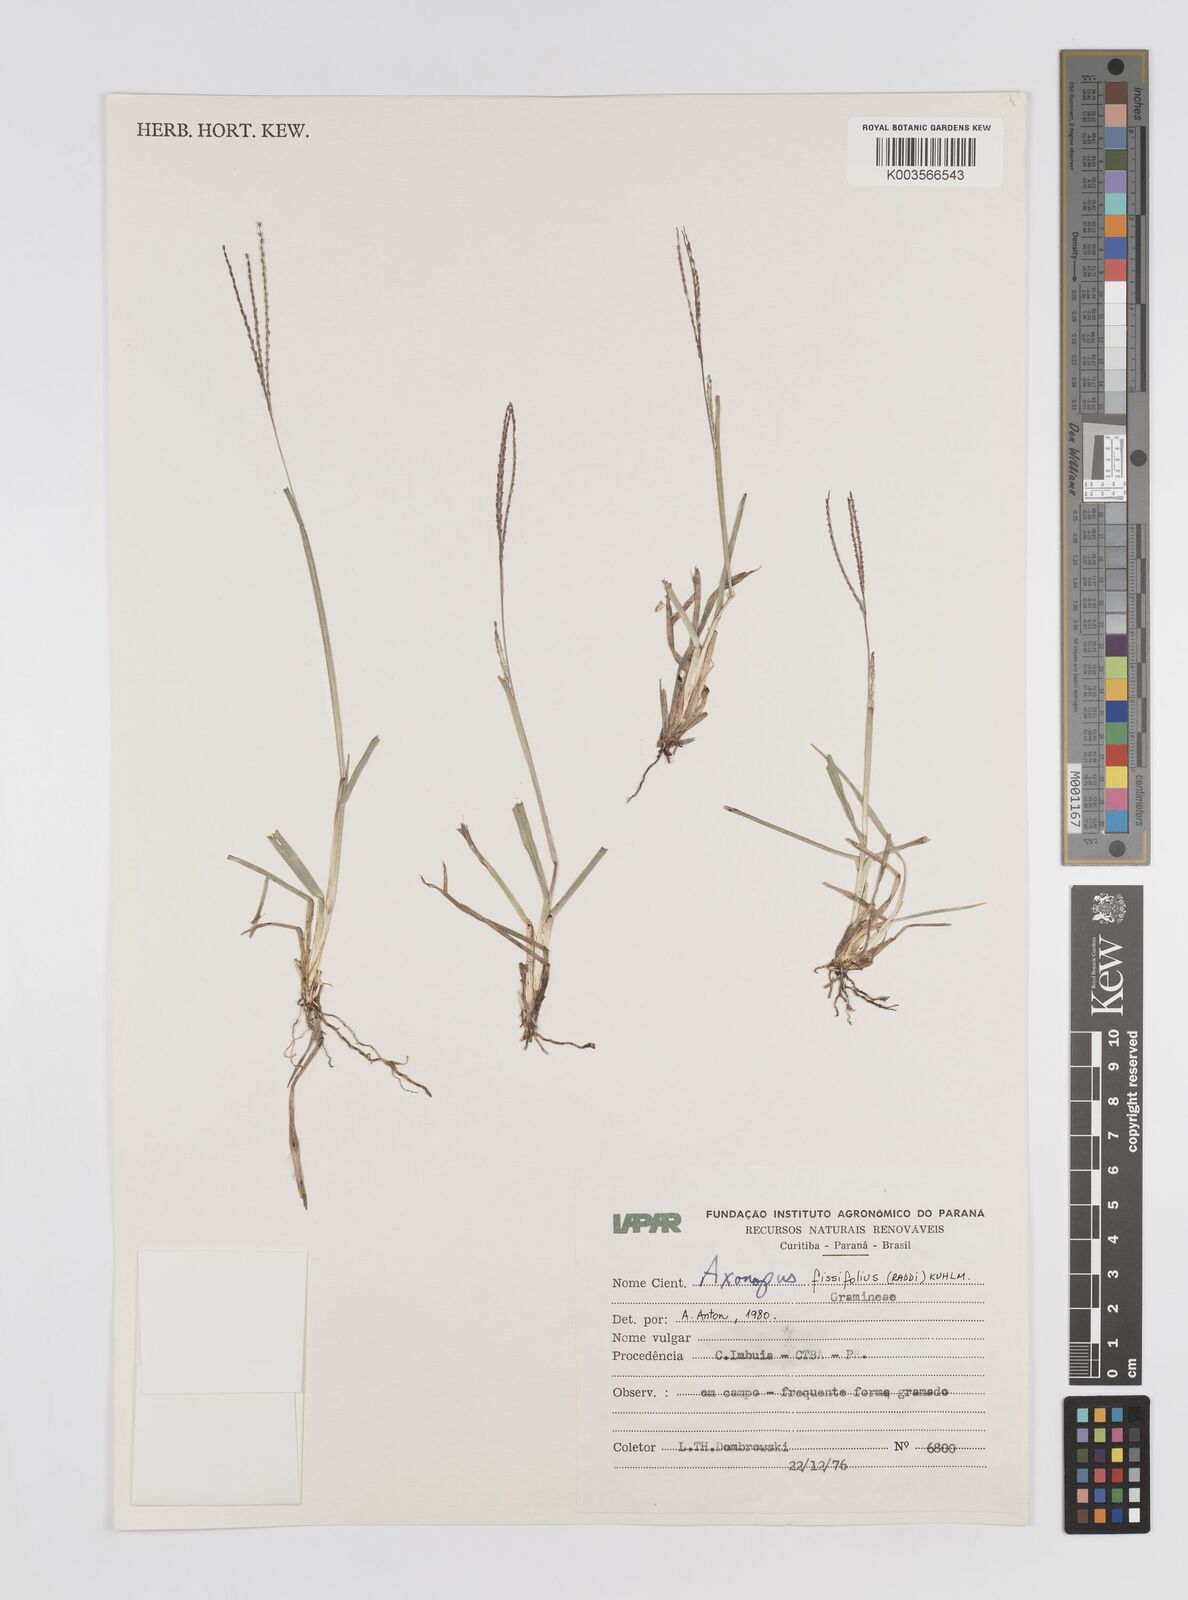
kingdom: Plantae
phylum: Tracheophyta
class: Liliopsida
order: Poales
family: Poaceae
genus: Axonopus
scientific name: Axonopus fissifolius
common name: Common carpetgrass
